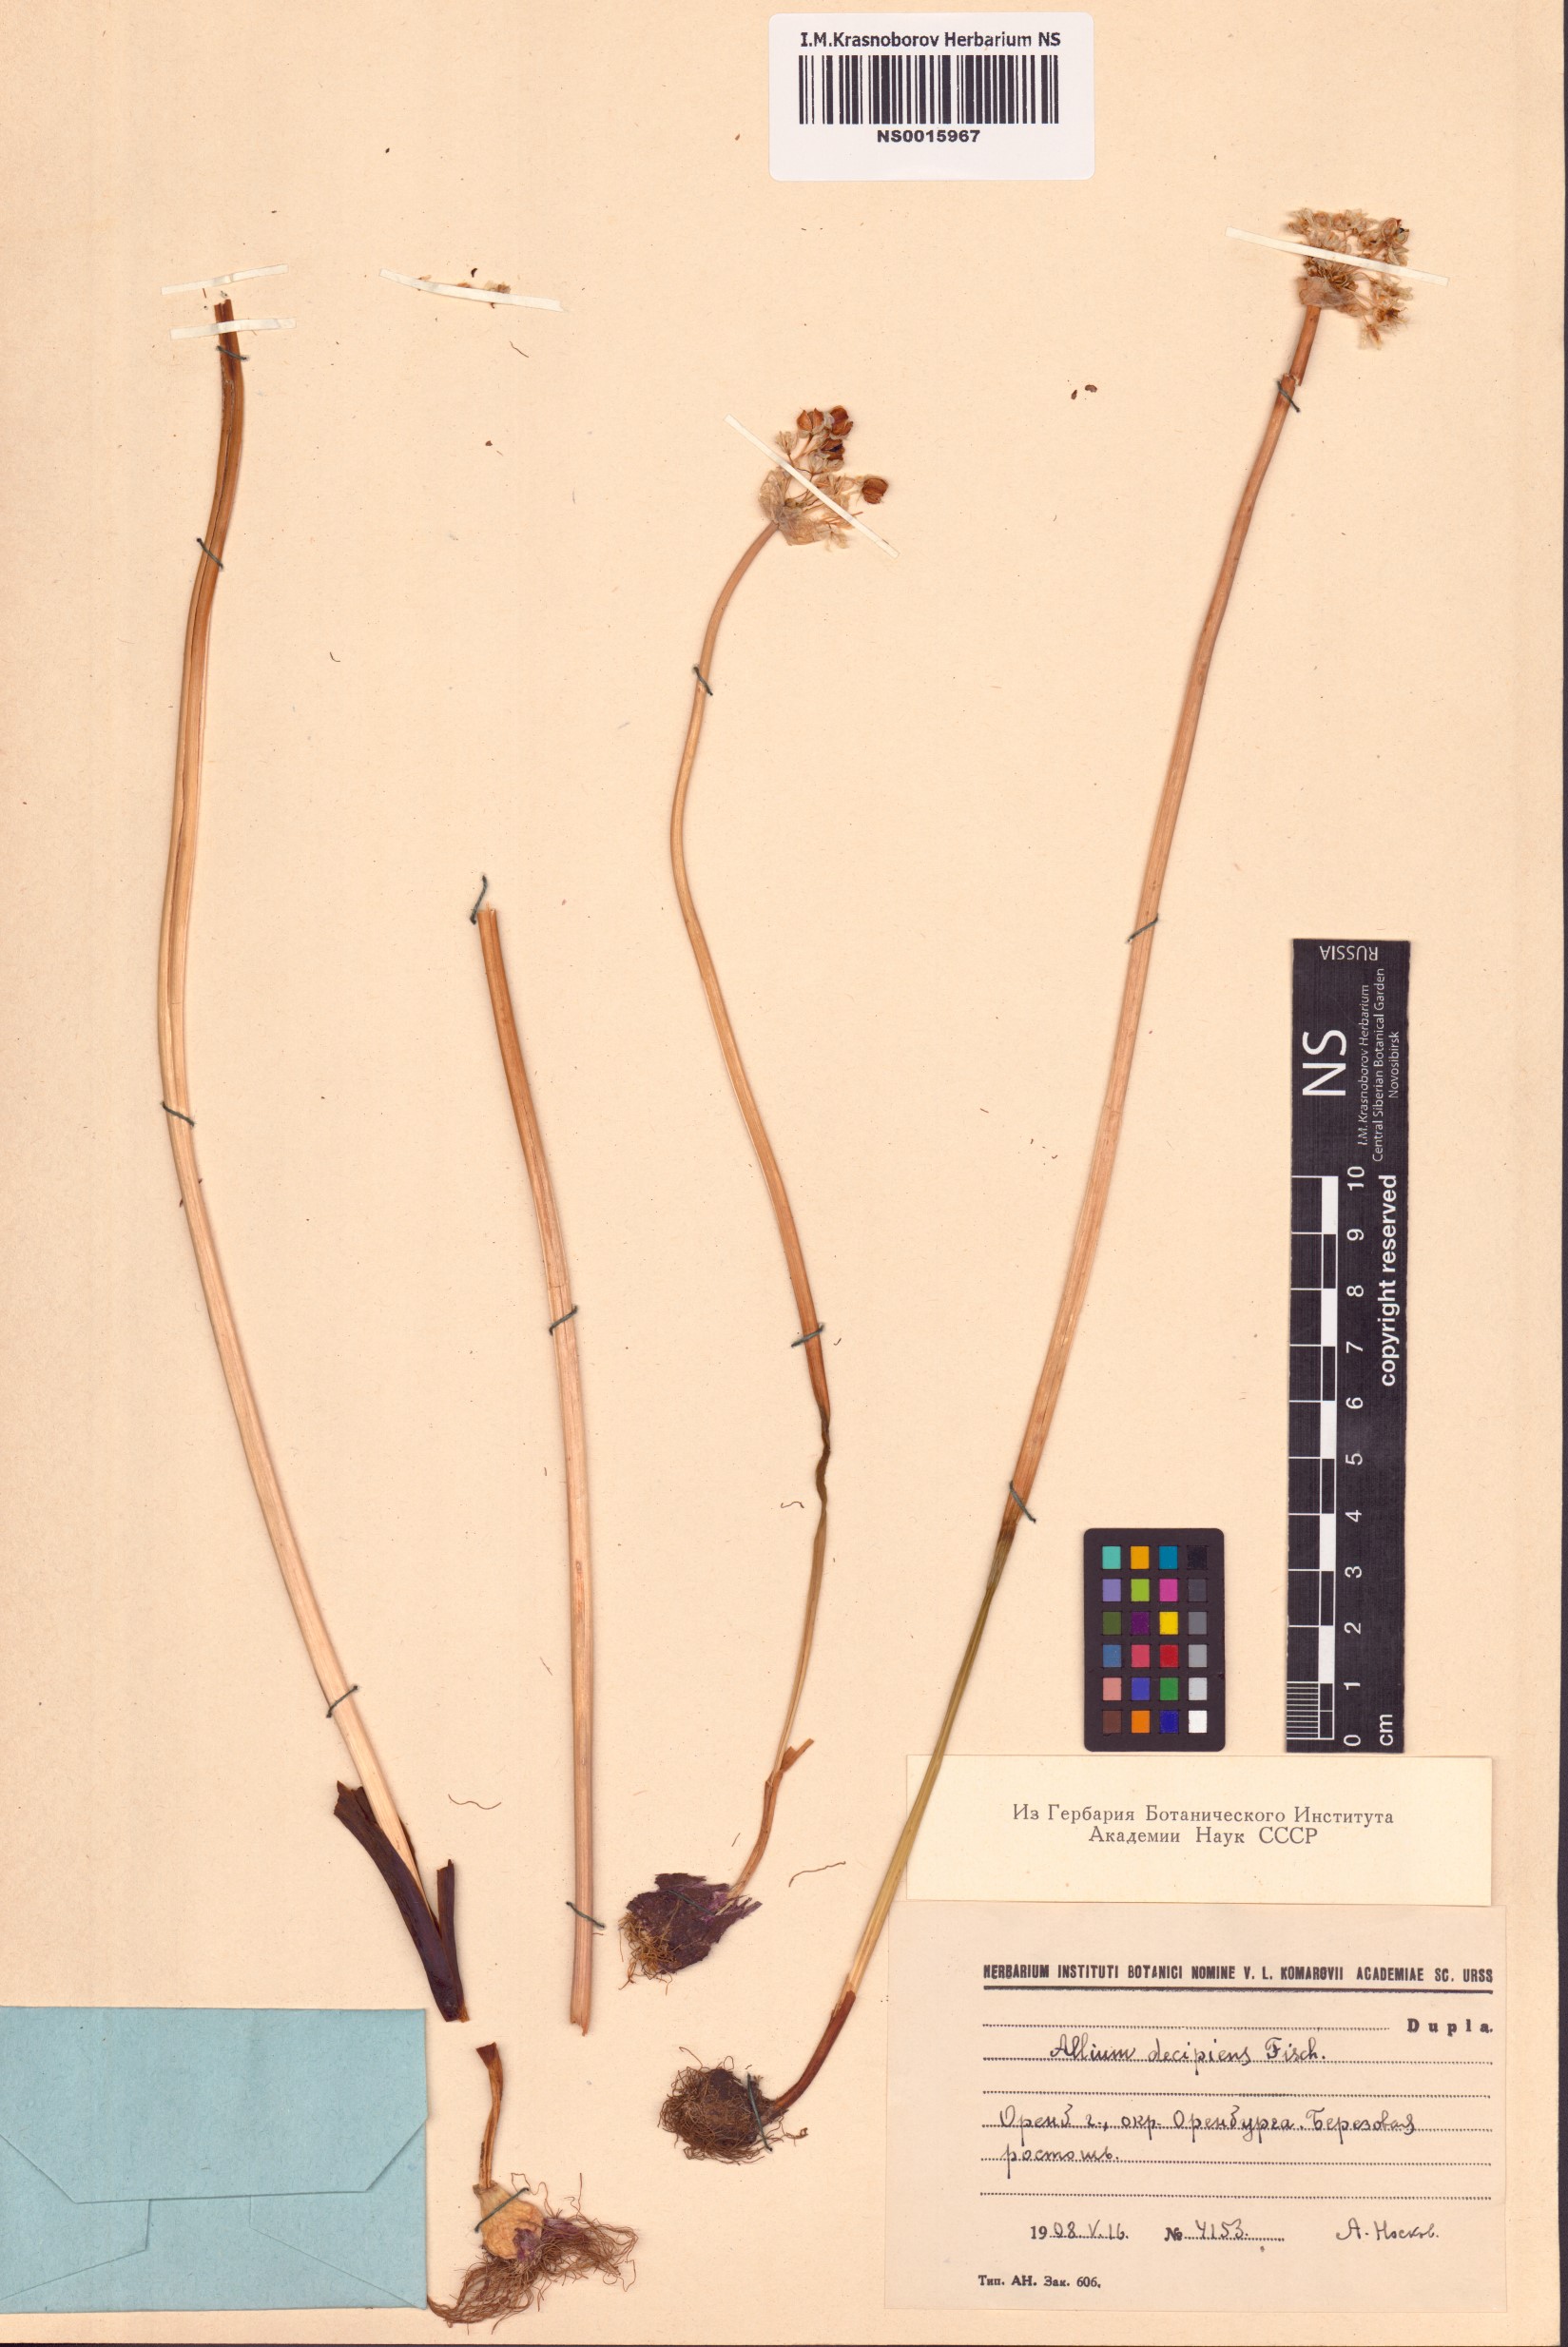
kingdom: Plantae
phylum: Tracheophyta
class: Liliopsida
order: Asparagales
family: Amaryllidaceae
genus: Allium
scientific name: Allium decipiens
